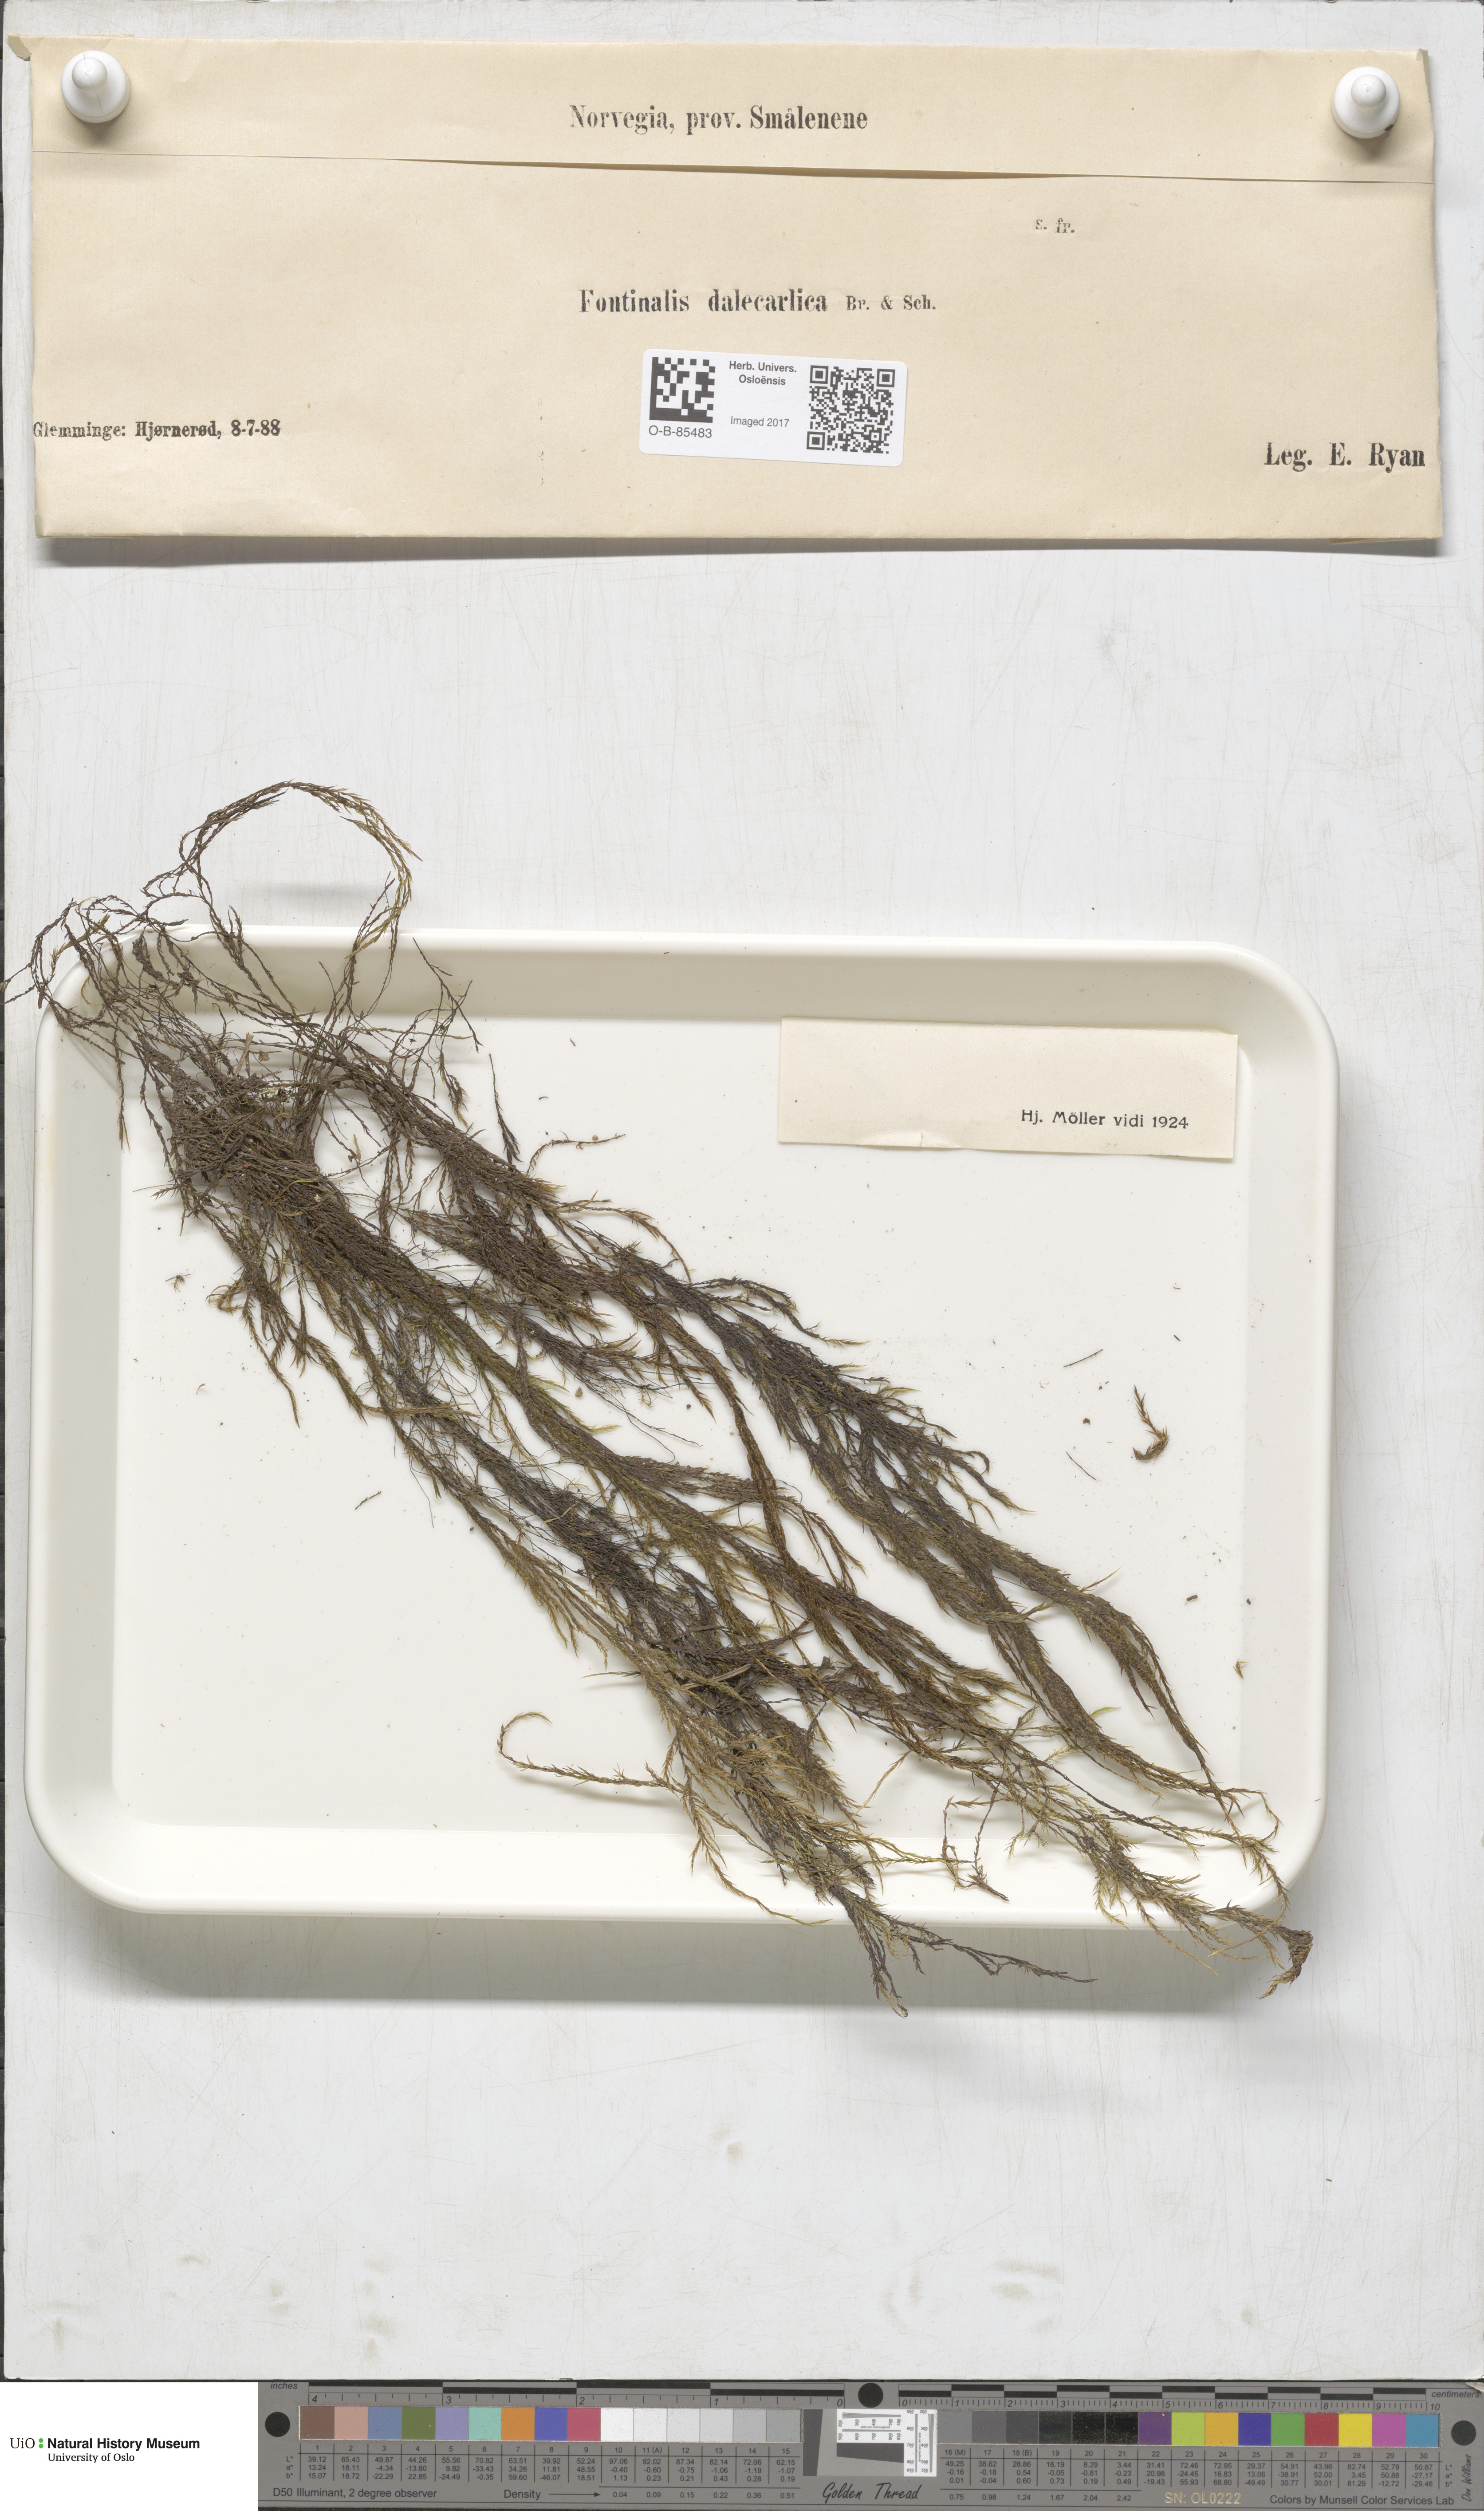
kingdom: Plantae
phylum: Bryophyta
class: Bryopsida
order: Hypnales
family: Fontinalaceae
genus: Fontinalis
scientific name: Fontinalis dalecarlica
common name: Slender water moss
